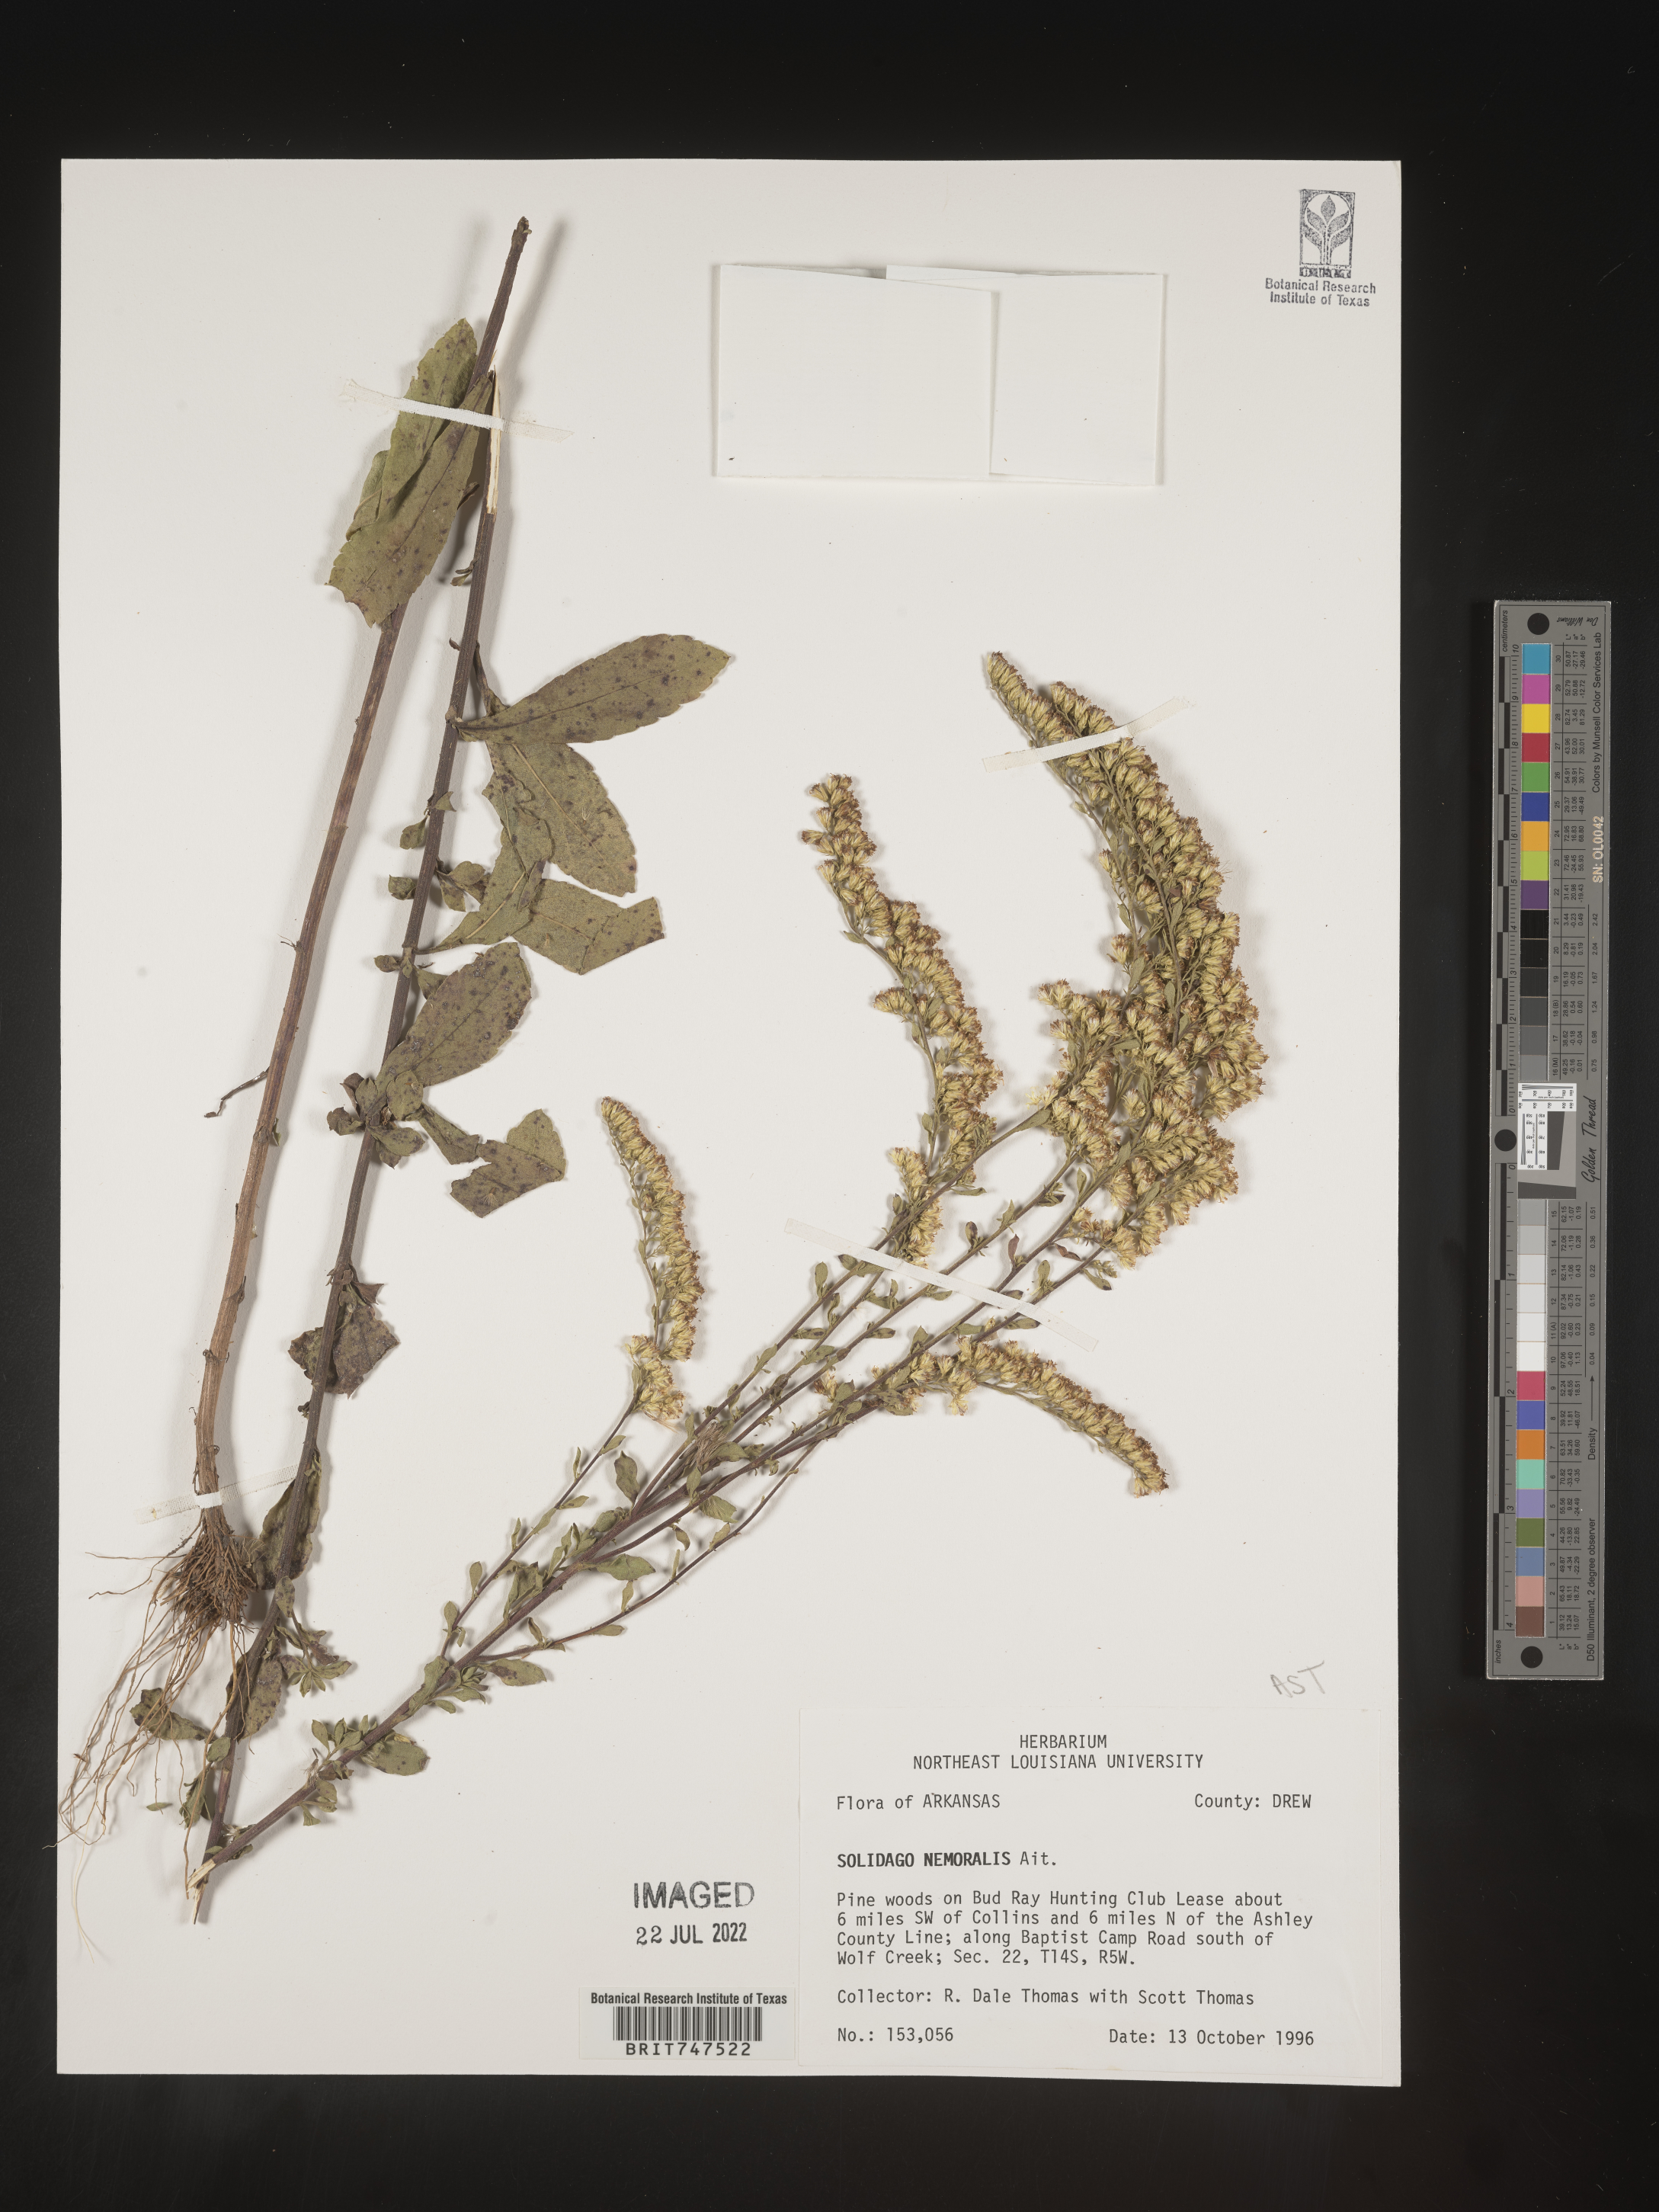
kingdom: Plantae
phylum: Tracheophyta
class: Magnoliopsida
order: Asterales
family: Asteraceae
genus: Solidago
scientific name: Solidago nemoralis
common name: Grey goldenrod
